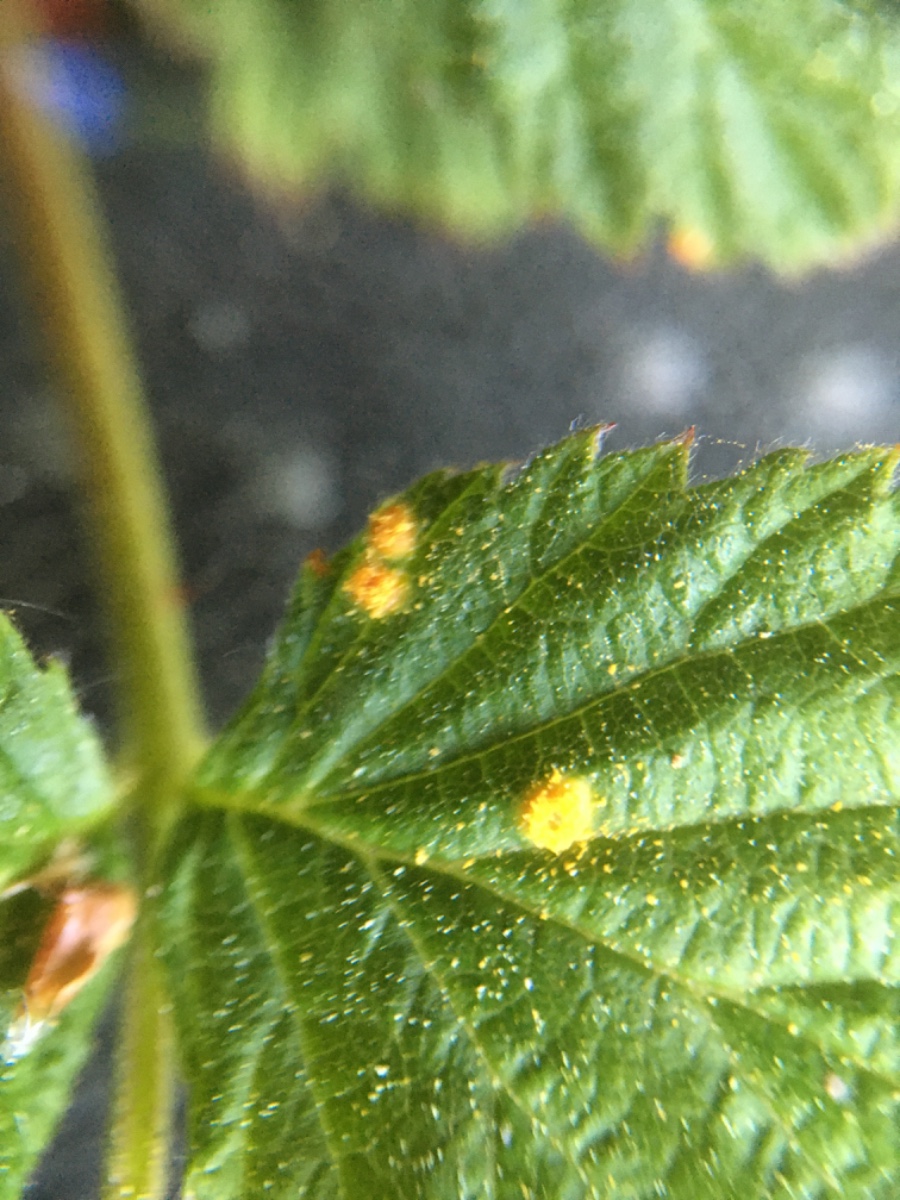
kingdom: Fungi
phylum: Basidiomycota
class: Pucciniomycetes
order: Pucciniales
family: Phragmidiaceae
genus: Phragmidium
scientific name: Phragmidium rubi-idaei
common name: hindbær-flercellerust
